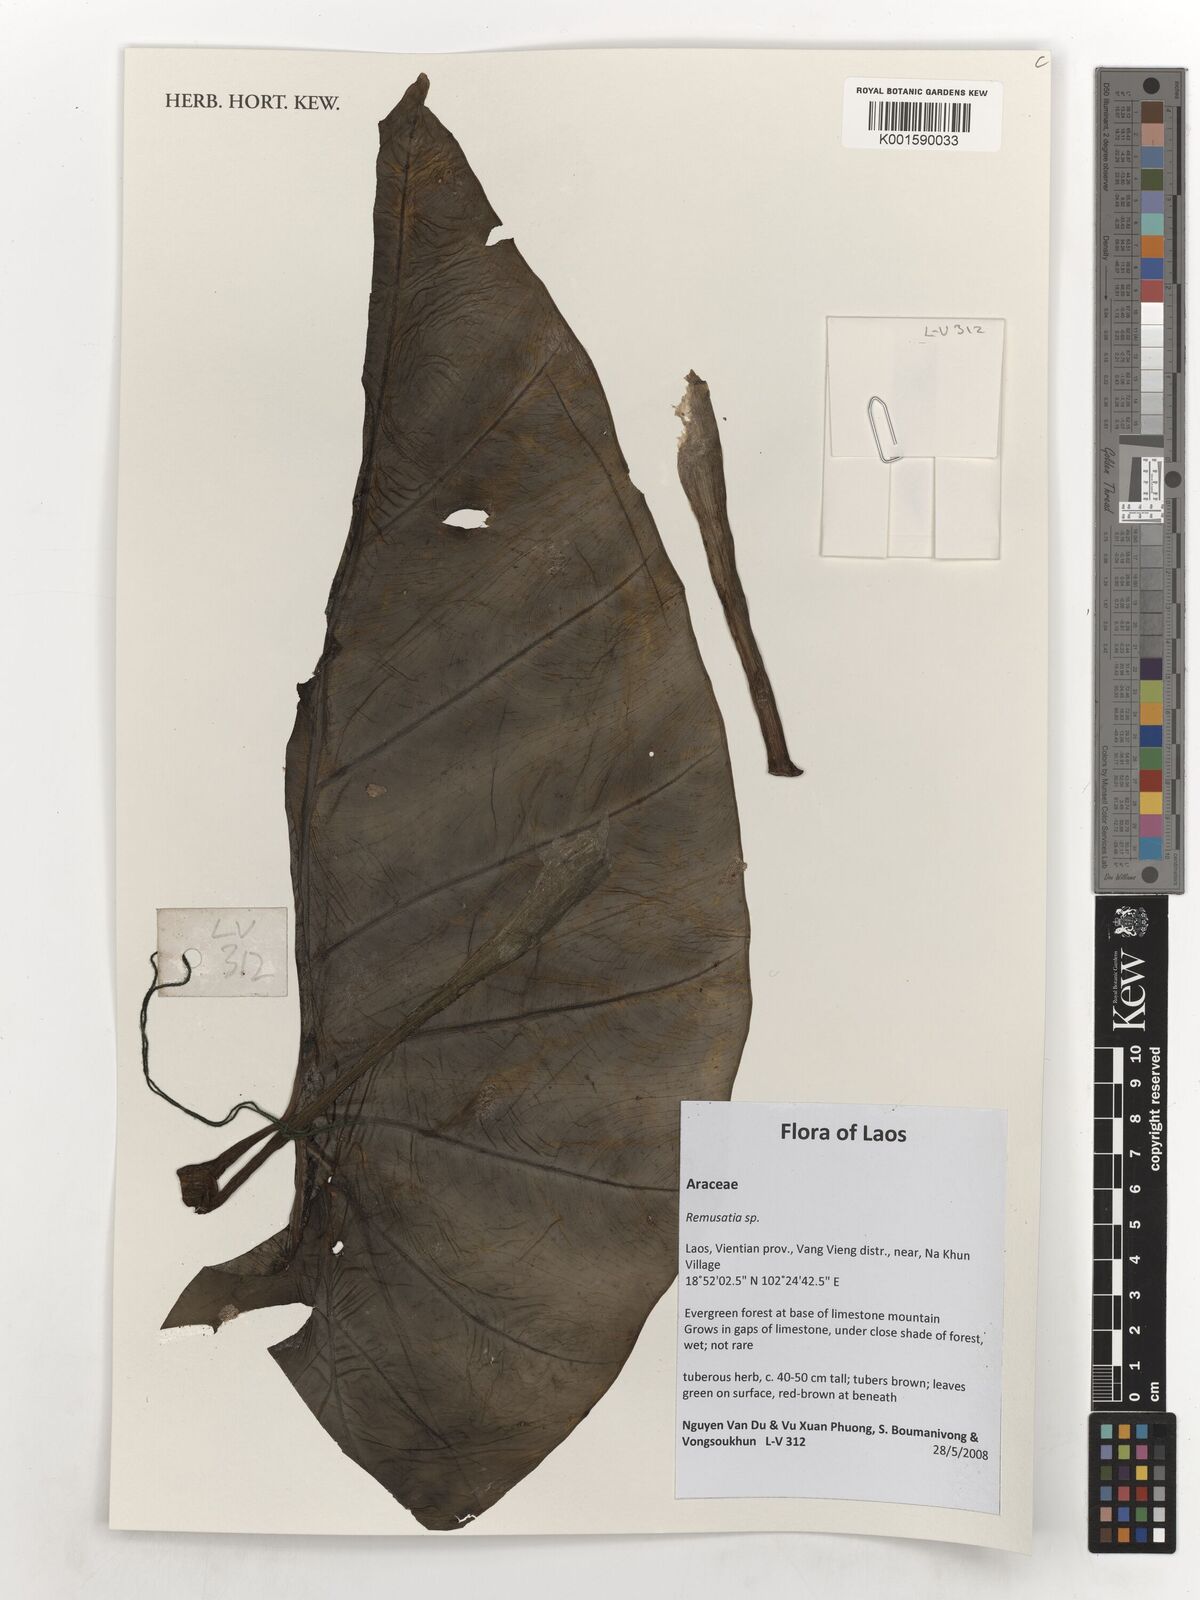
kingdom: Plantae
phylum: Tracheophyta
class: Liliopsida
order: Alismatales
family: Araceae
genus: Remusatia
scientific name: Remusatia
